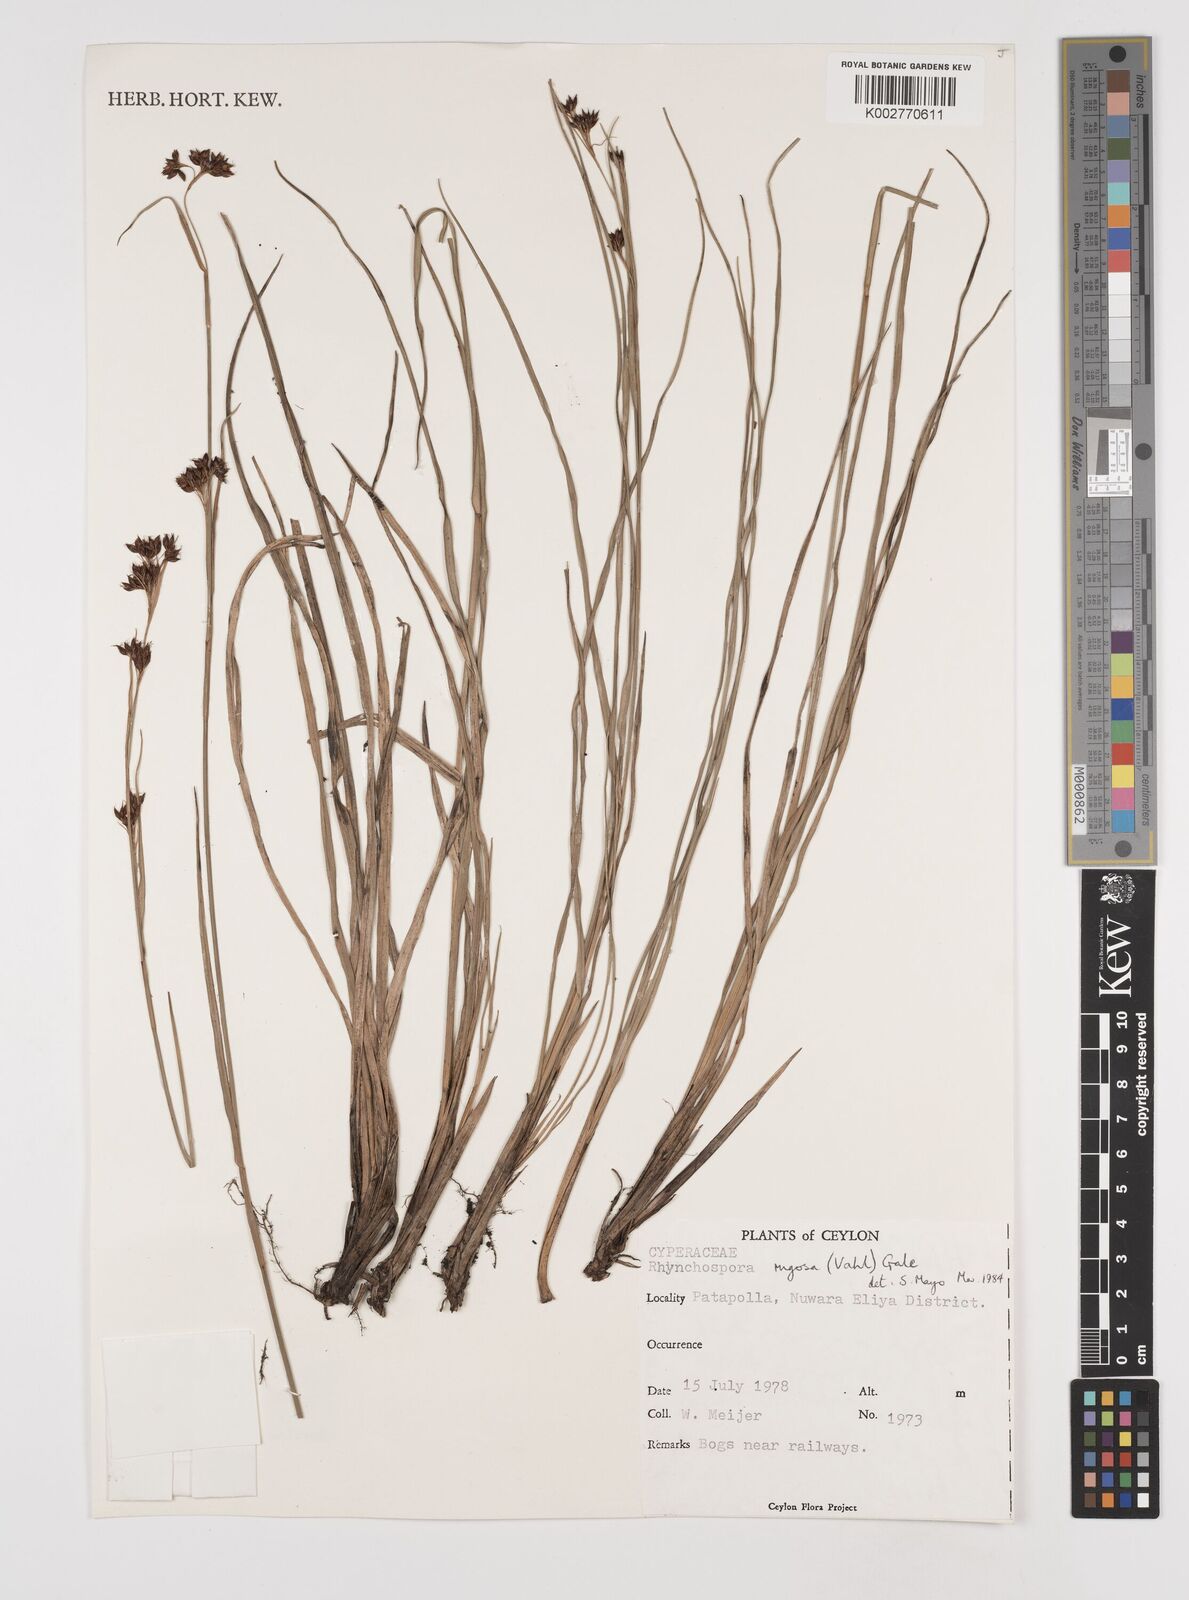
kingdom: Plantae
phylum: Tracheophyta
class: Liliopsida
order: Poales
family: Cyperaceae
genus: Rhynchospora
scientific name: Rhynchospora rugosa
